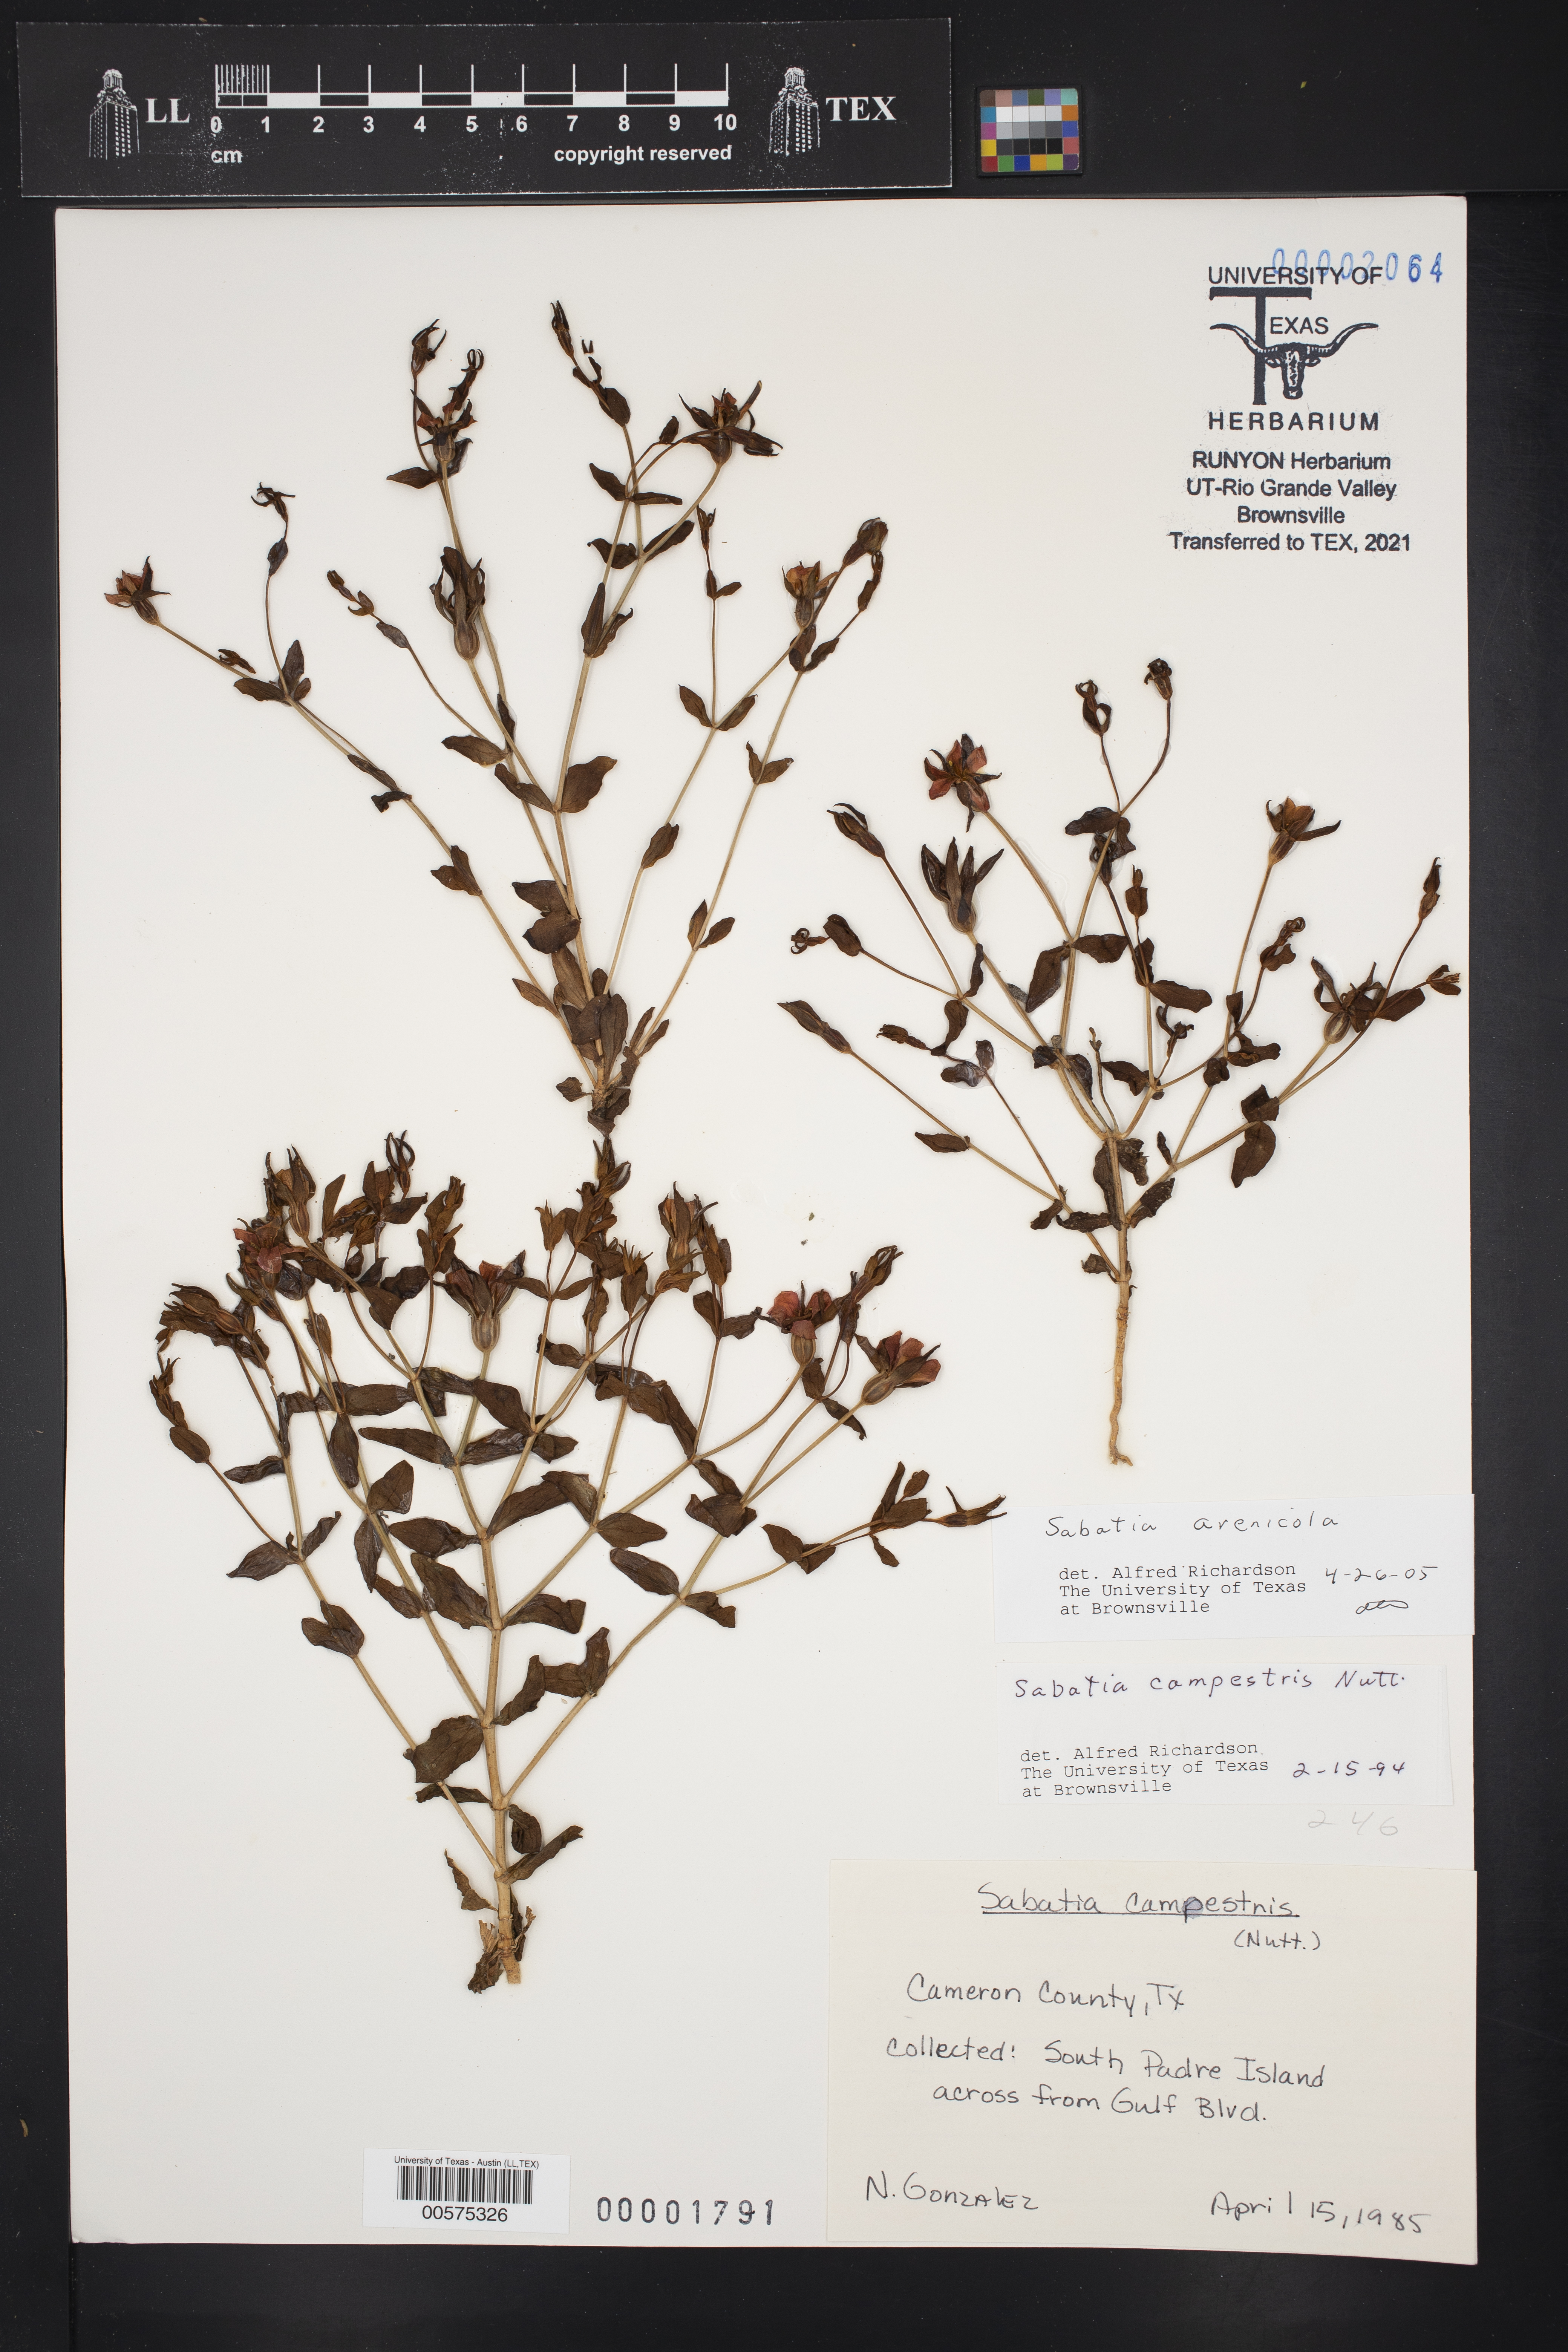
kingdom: Plantae
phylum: Tracheophyta
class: Magnoliopsida
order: Gentianales
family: Gentianaceae
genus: Sabatia
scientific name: Sabatia arenicola
